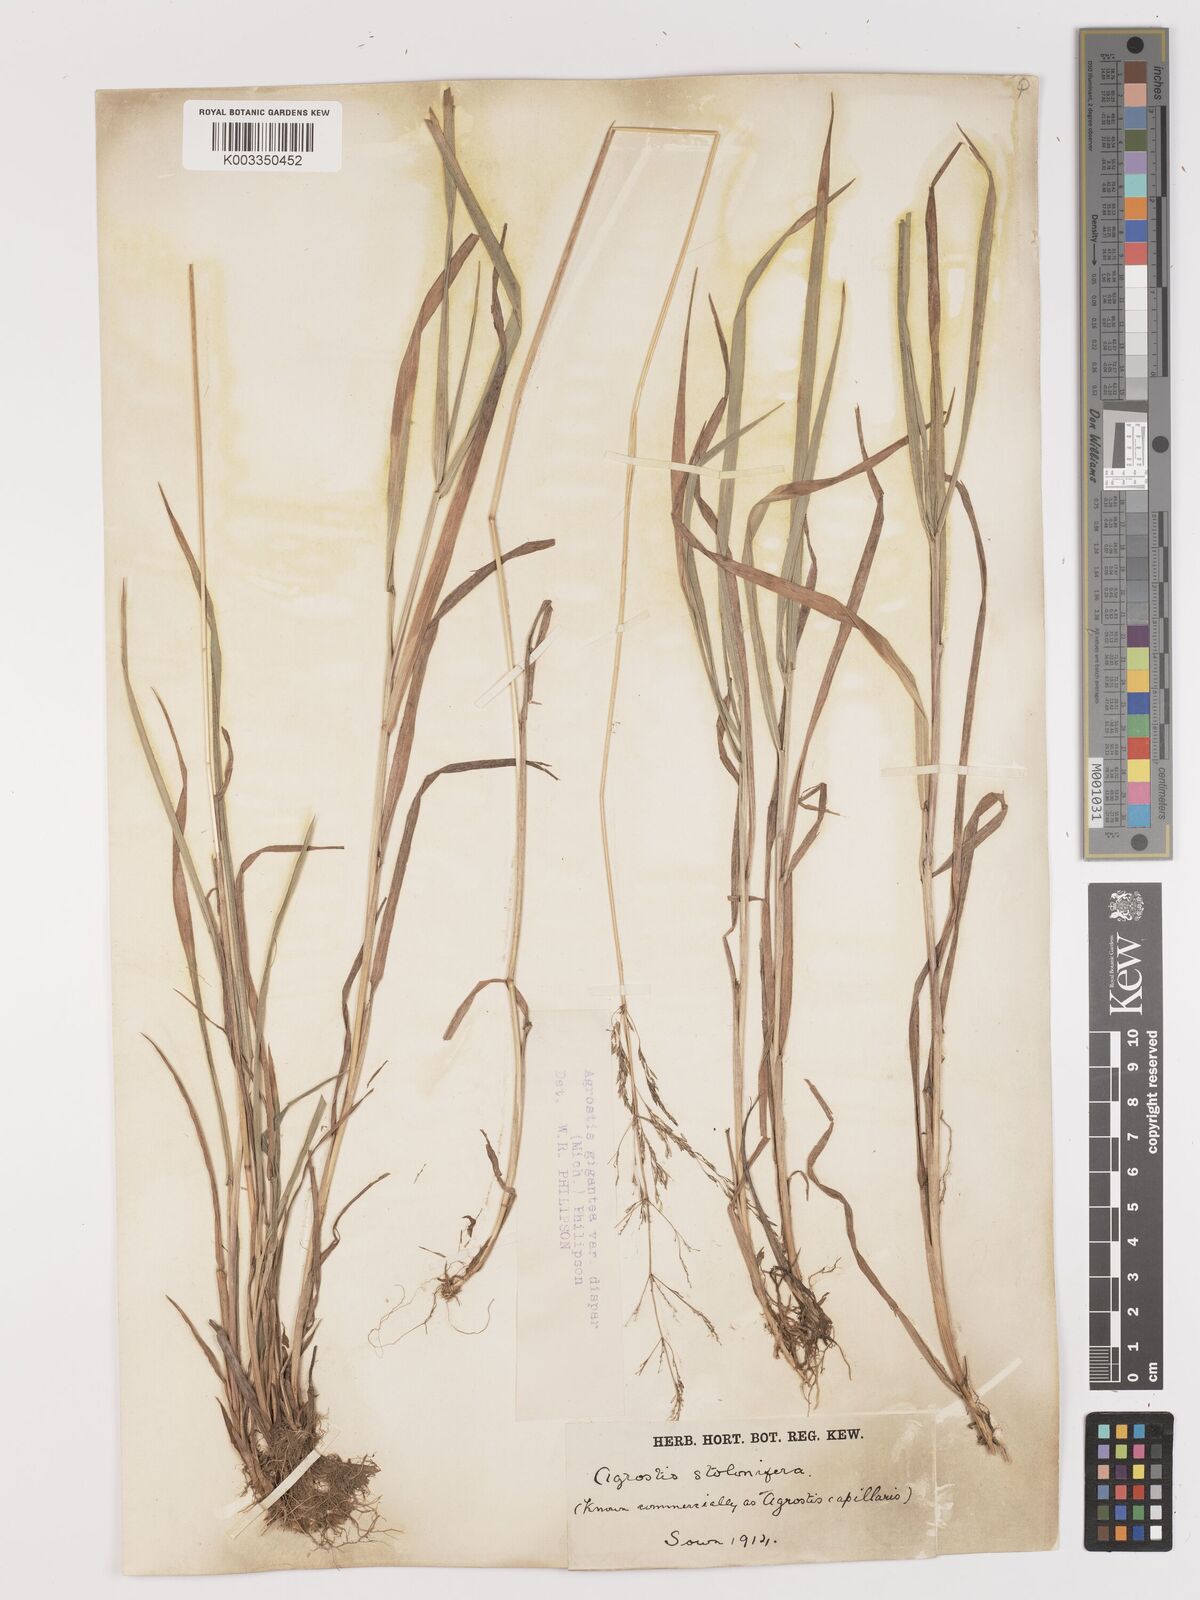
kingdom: Plantae
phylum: Tracheophyta
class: Liliopsida
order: Poales
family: Poaceae
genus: Agrostis
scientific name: Agrostis gigantea
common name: Black bent
